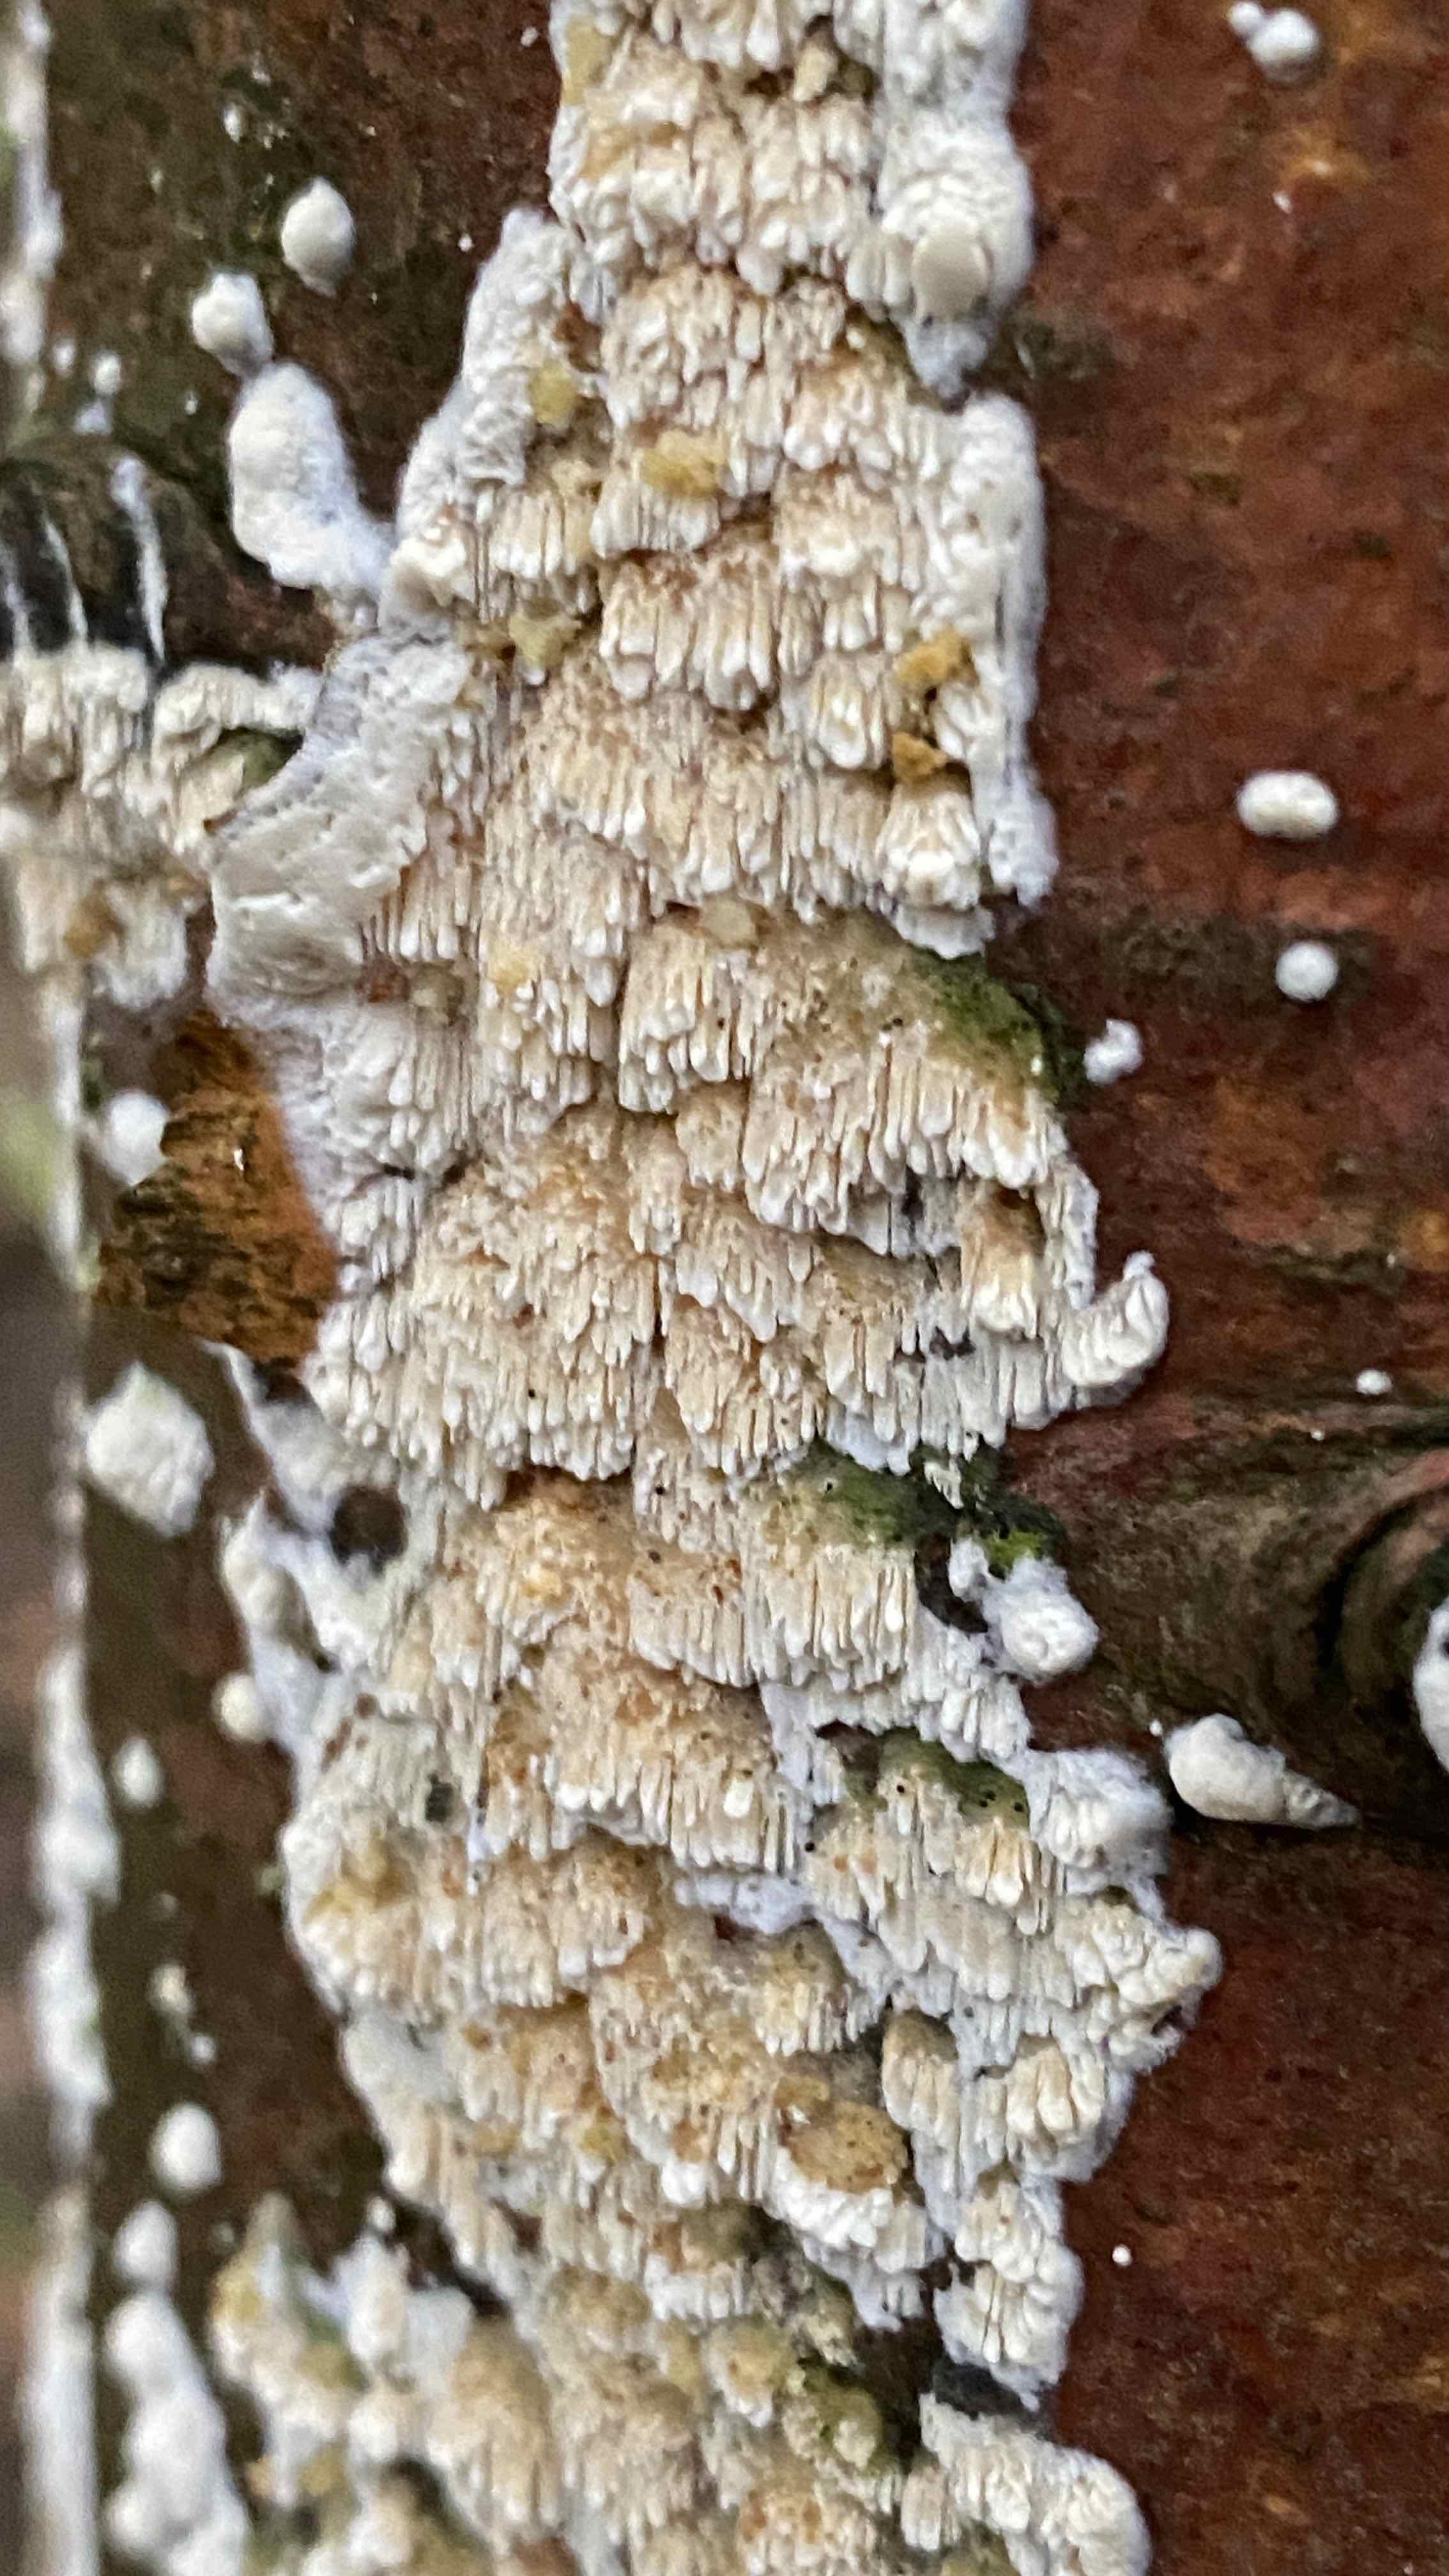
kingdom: Fungi
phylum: Basidiomycota
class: Agaricomycetes
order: Hymenochaetales
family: Schizoporaceae
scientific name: Schizoporaceae
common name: tandsvampfamilien
